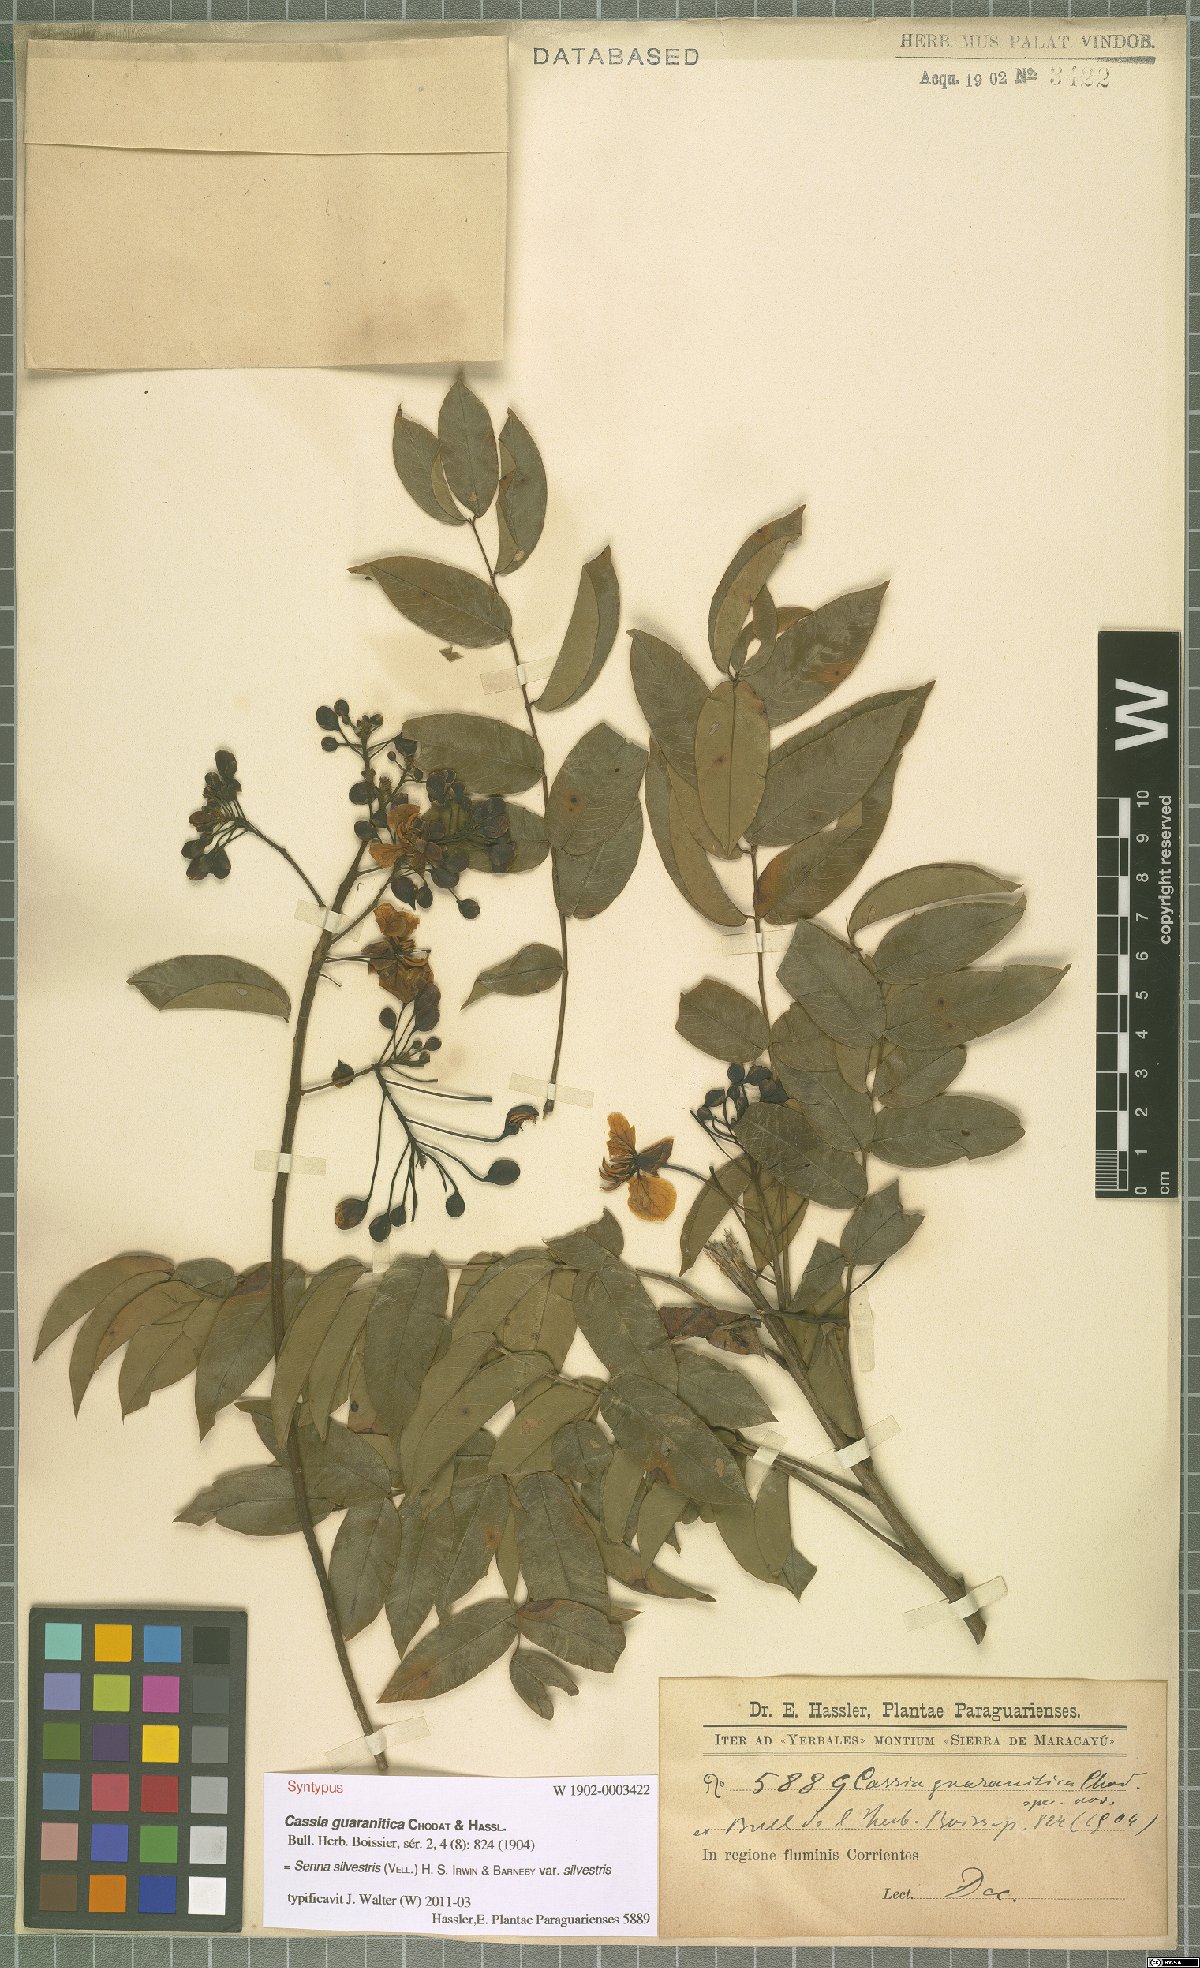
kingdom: Plantae
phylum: Tracheophyta
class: Magnoliopsida
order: Fabales
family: Fabaceae
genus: Senna
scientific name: Senna silvestris
